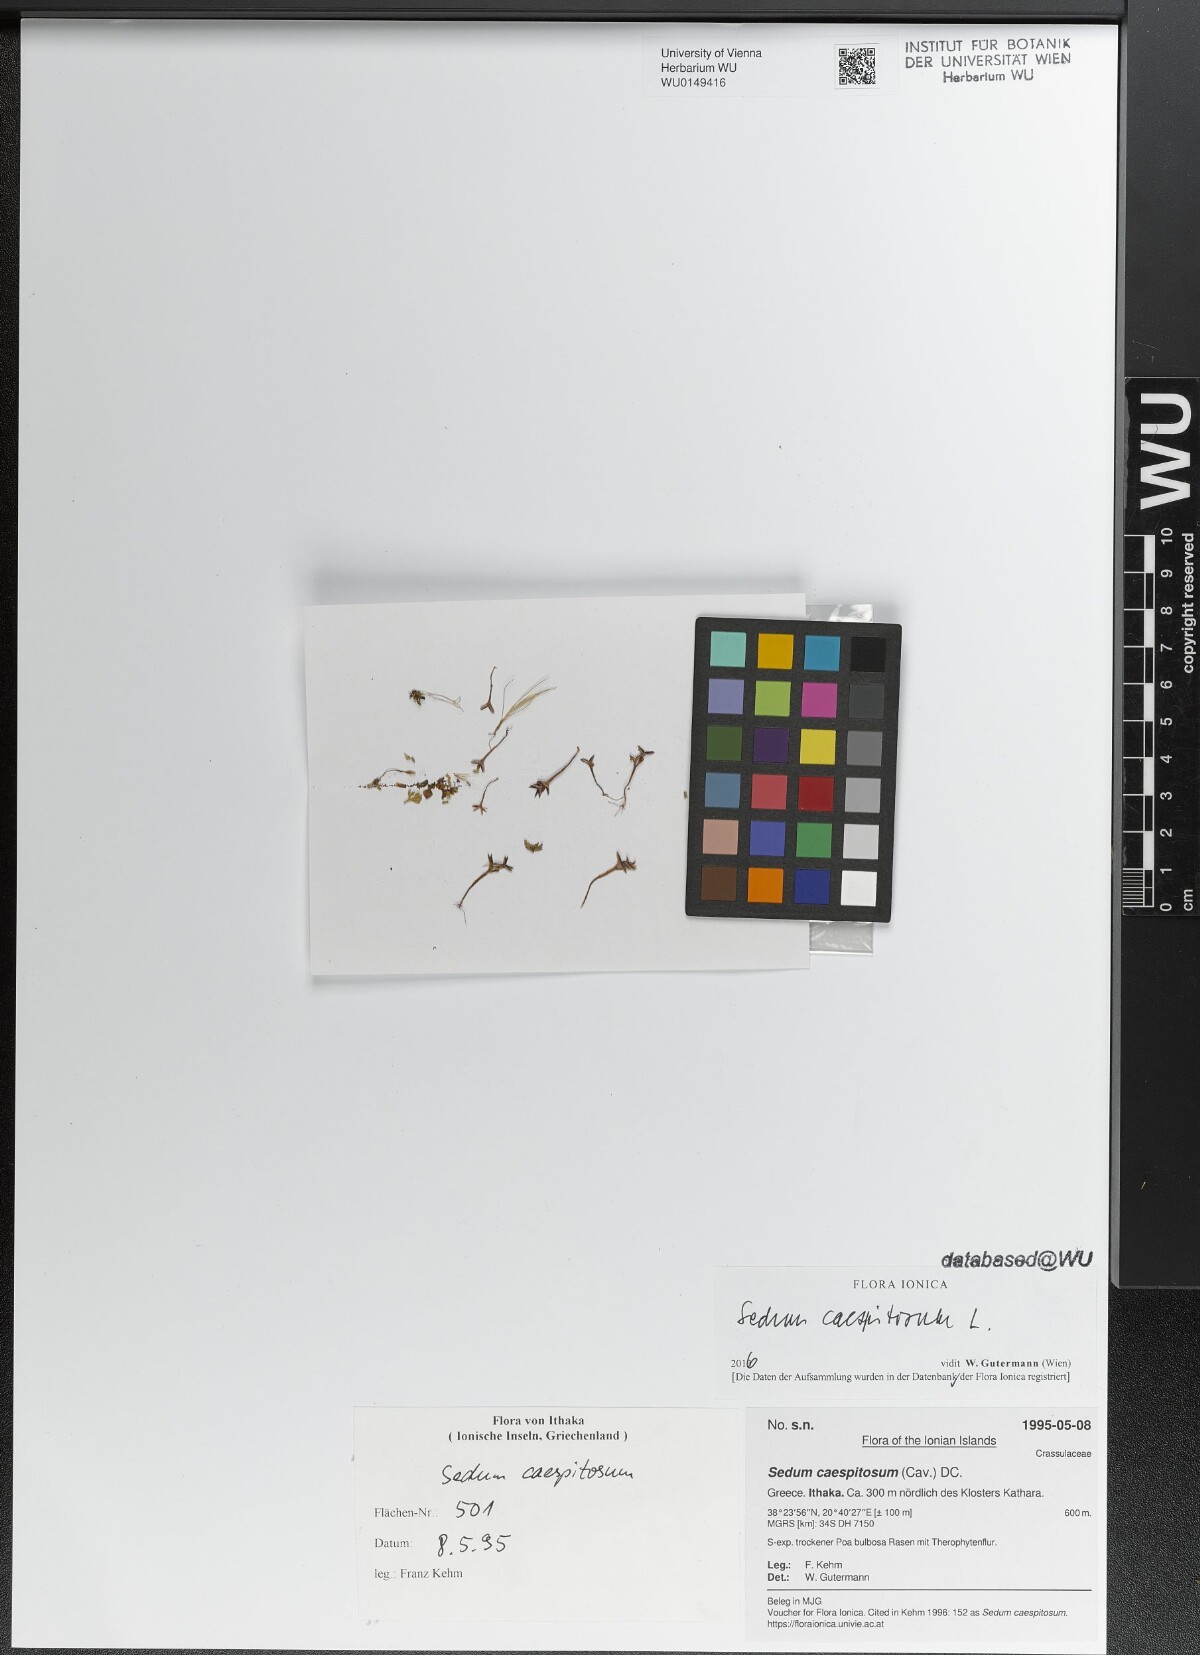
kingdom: Plantae
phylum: Tracheophyta
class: Magnoliopsida
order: Saxifragales
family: Crassulaceae
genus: Sedum
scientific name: Sedum cespitosum
